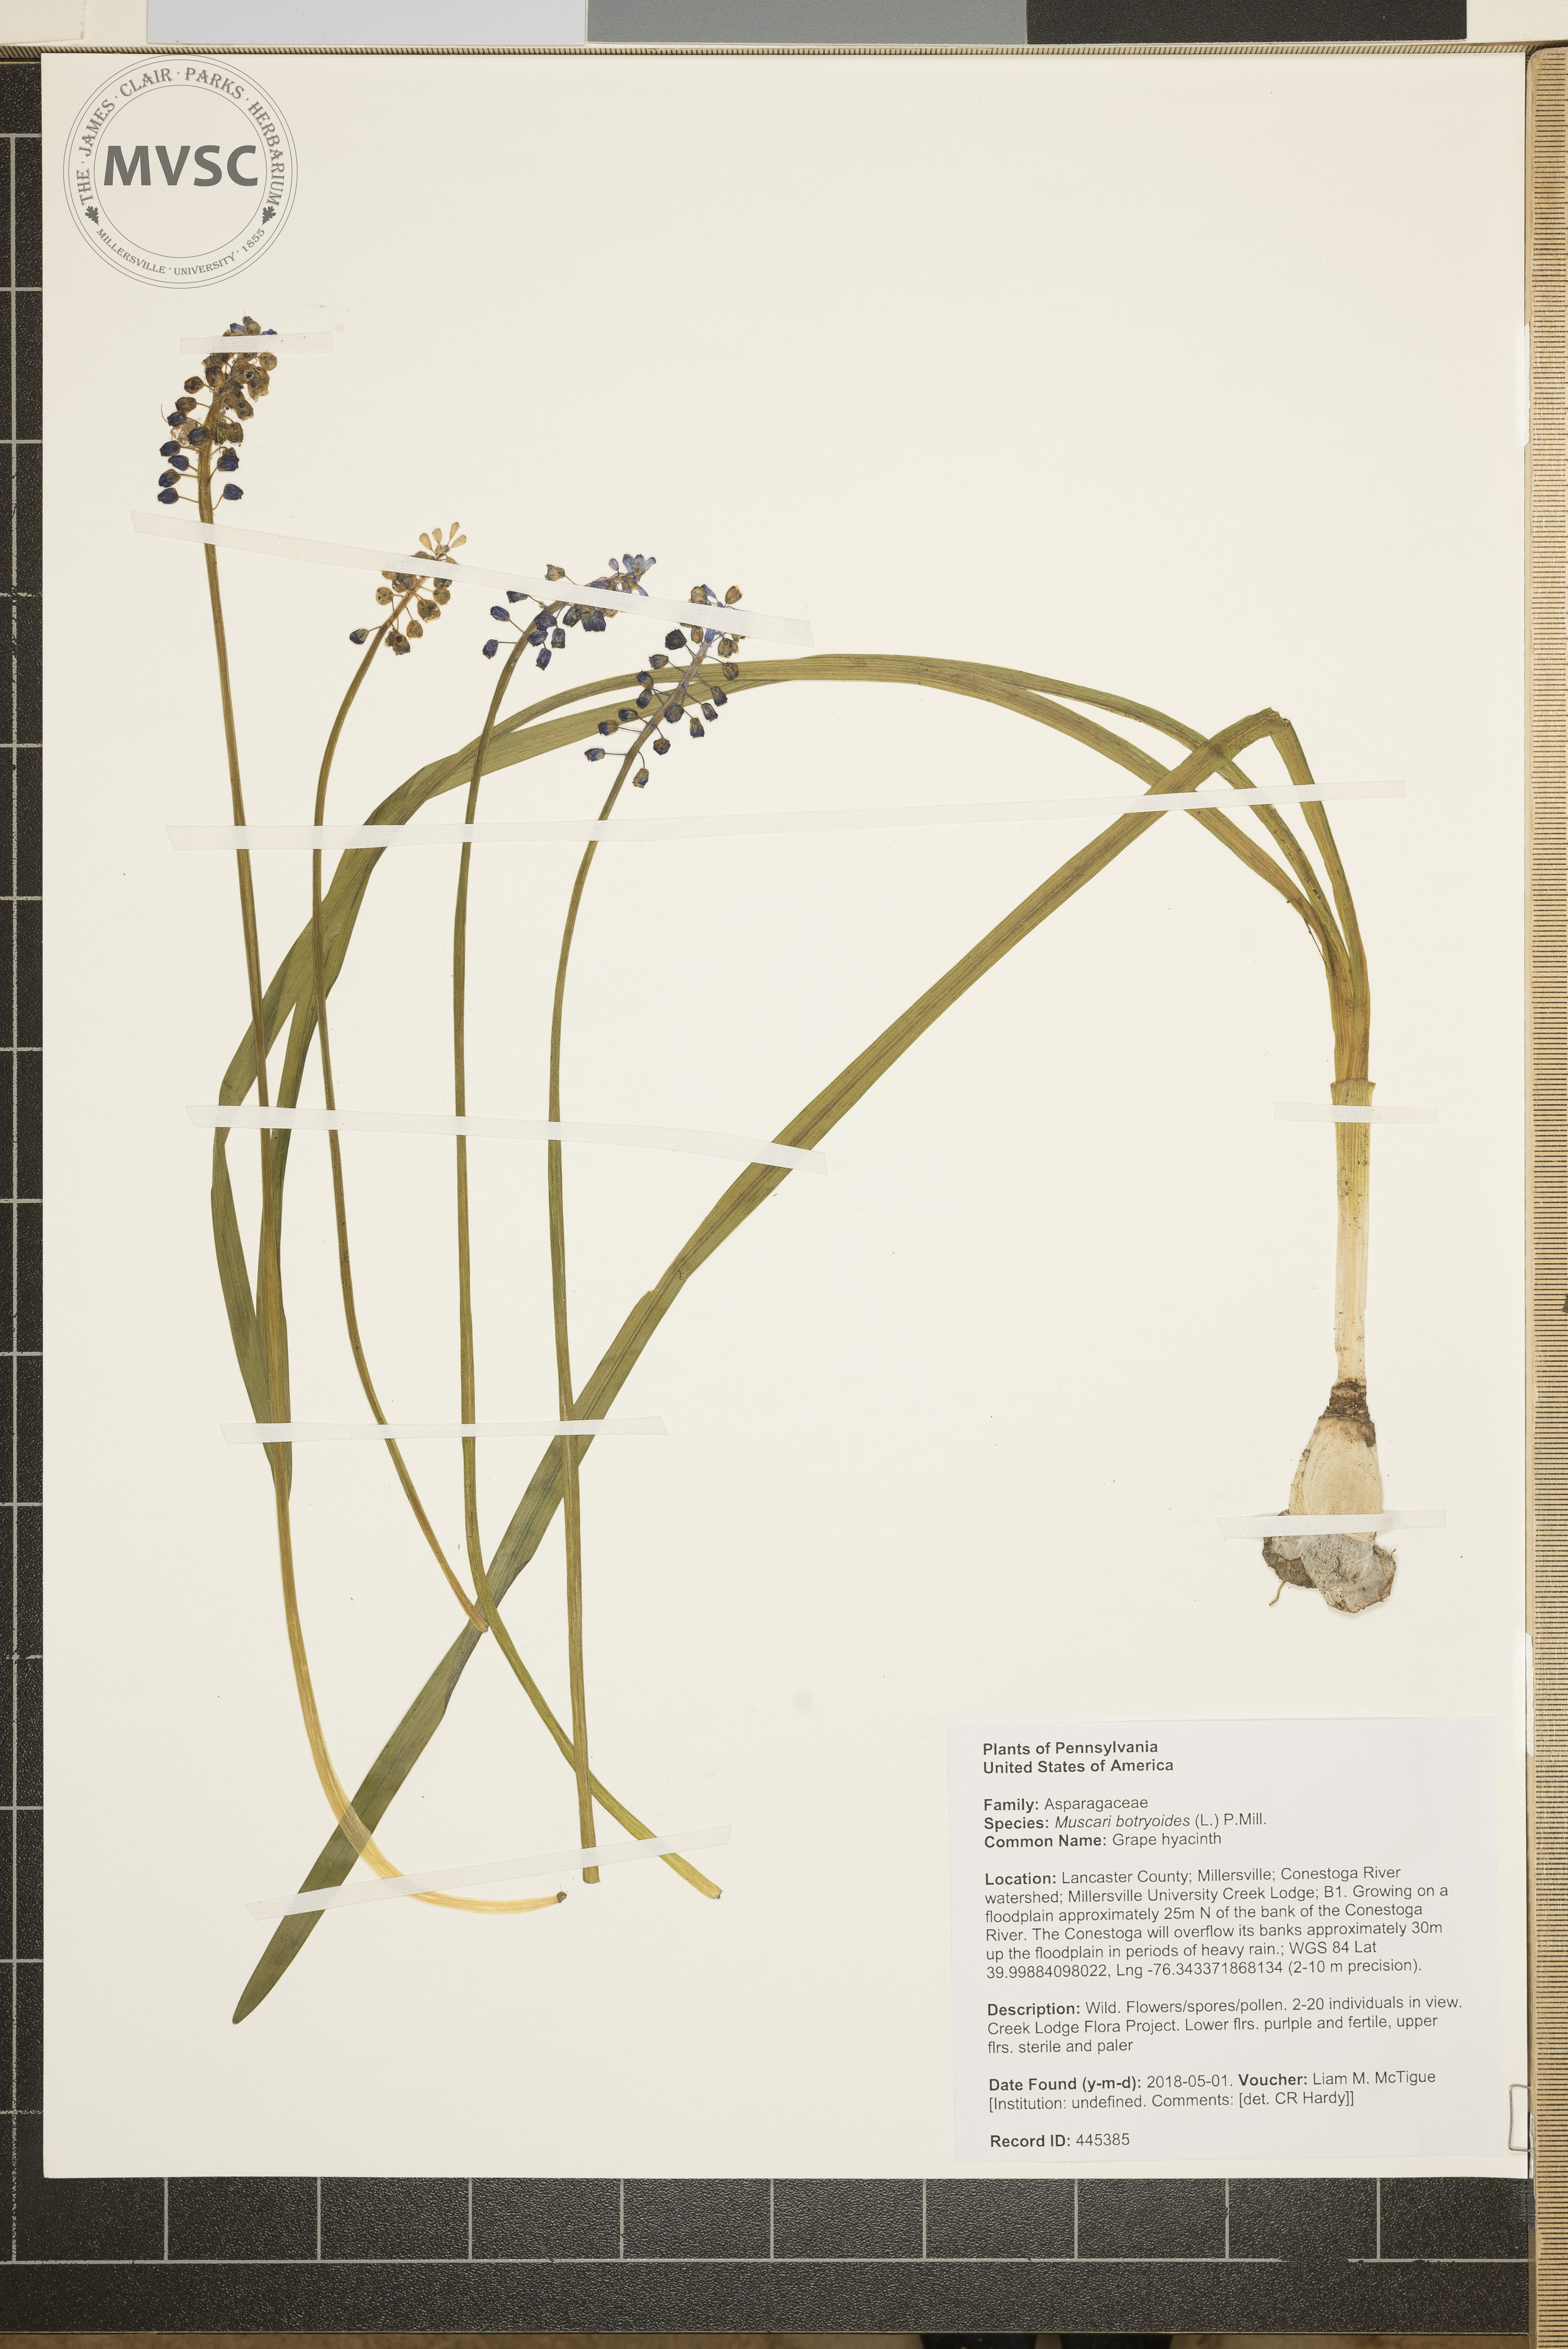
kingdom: Plantae
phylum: Tracheophyta
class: Liliopsida
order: Asparagales
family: Asparagaceae
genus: Muscari
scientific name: Muscari botryoides
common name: Grape hyacinth
